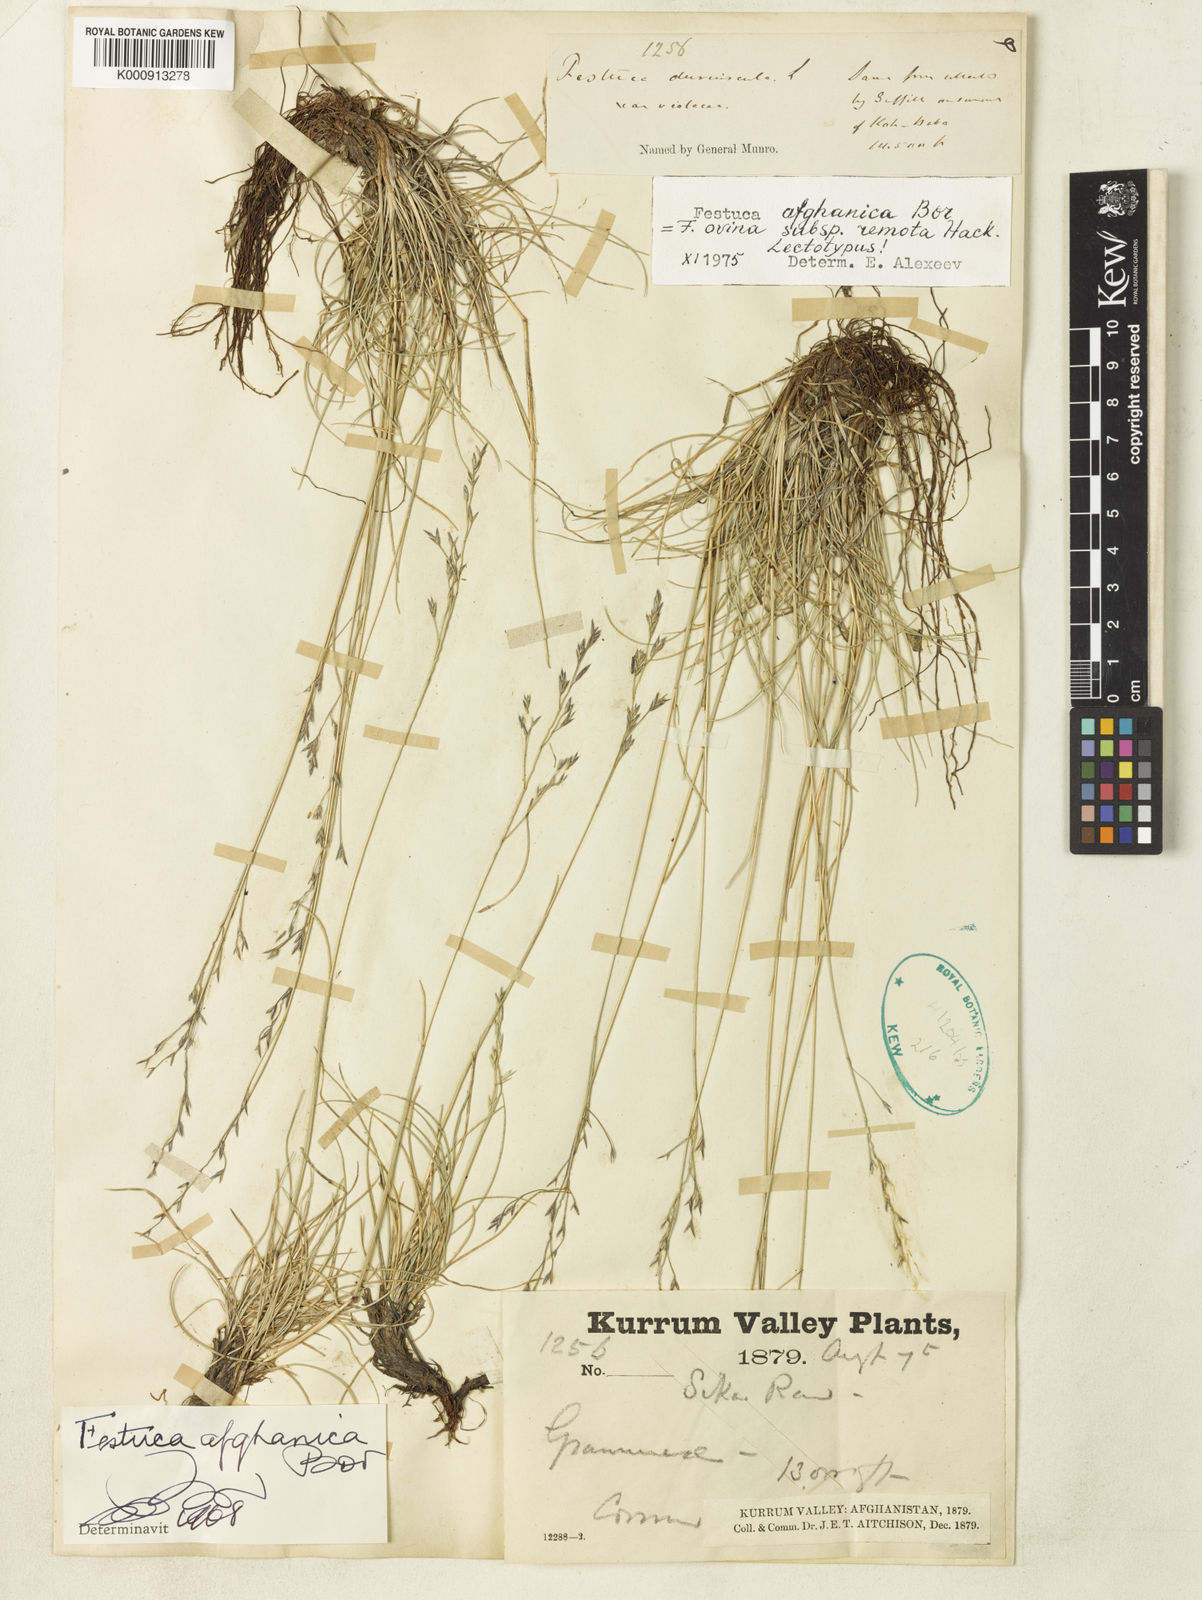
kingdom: Plantae
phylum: Tracheophyta
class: Liliopsida
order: Poales
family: Poaceae
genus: Festuca
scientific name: Festuca afghanica
